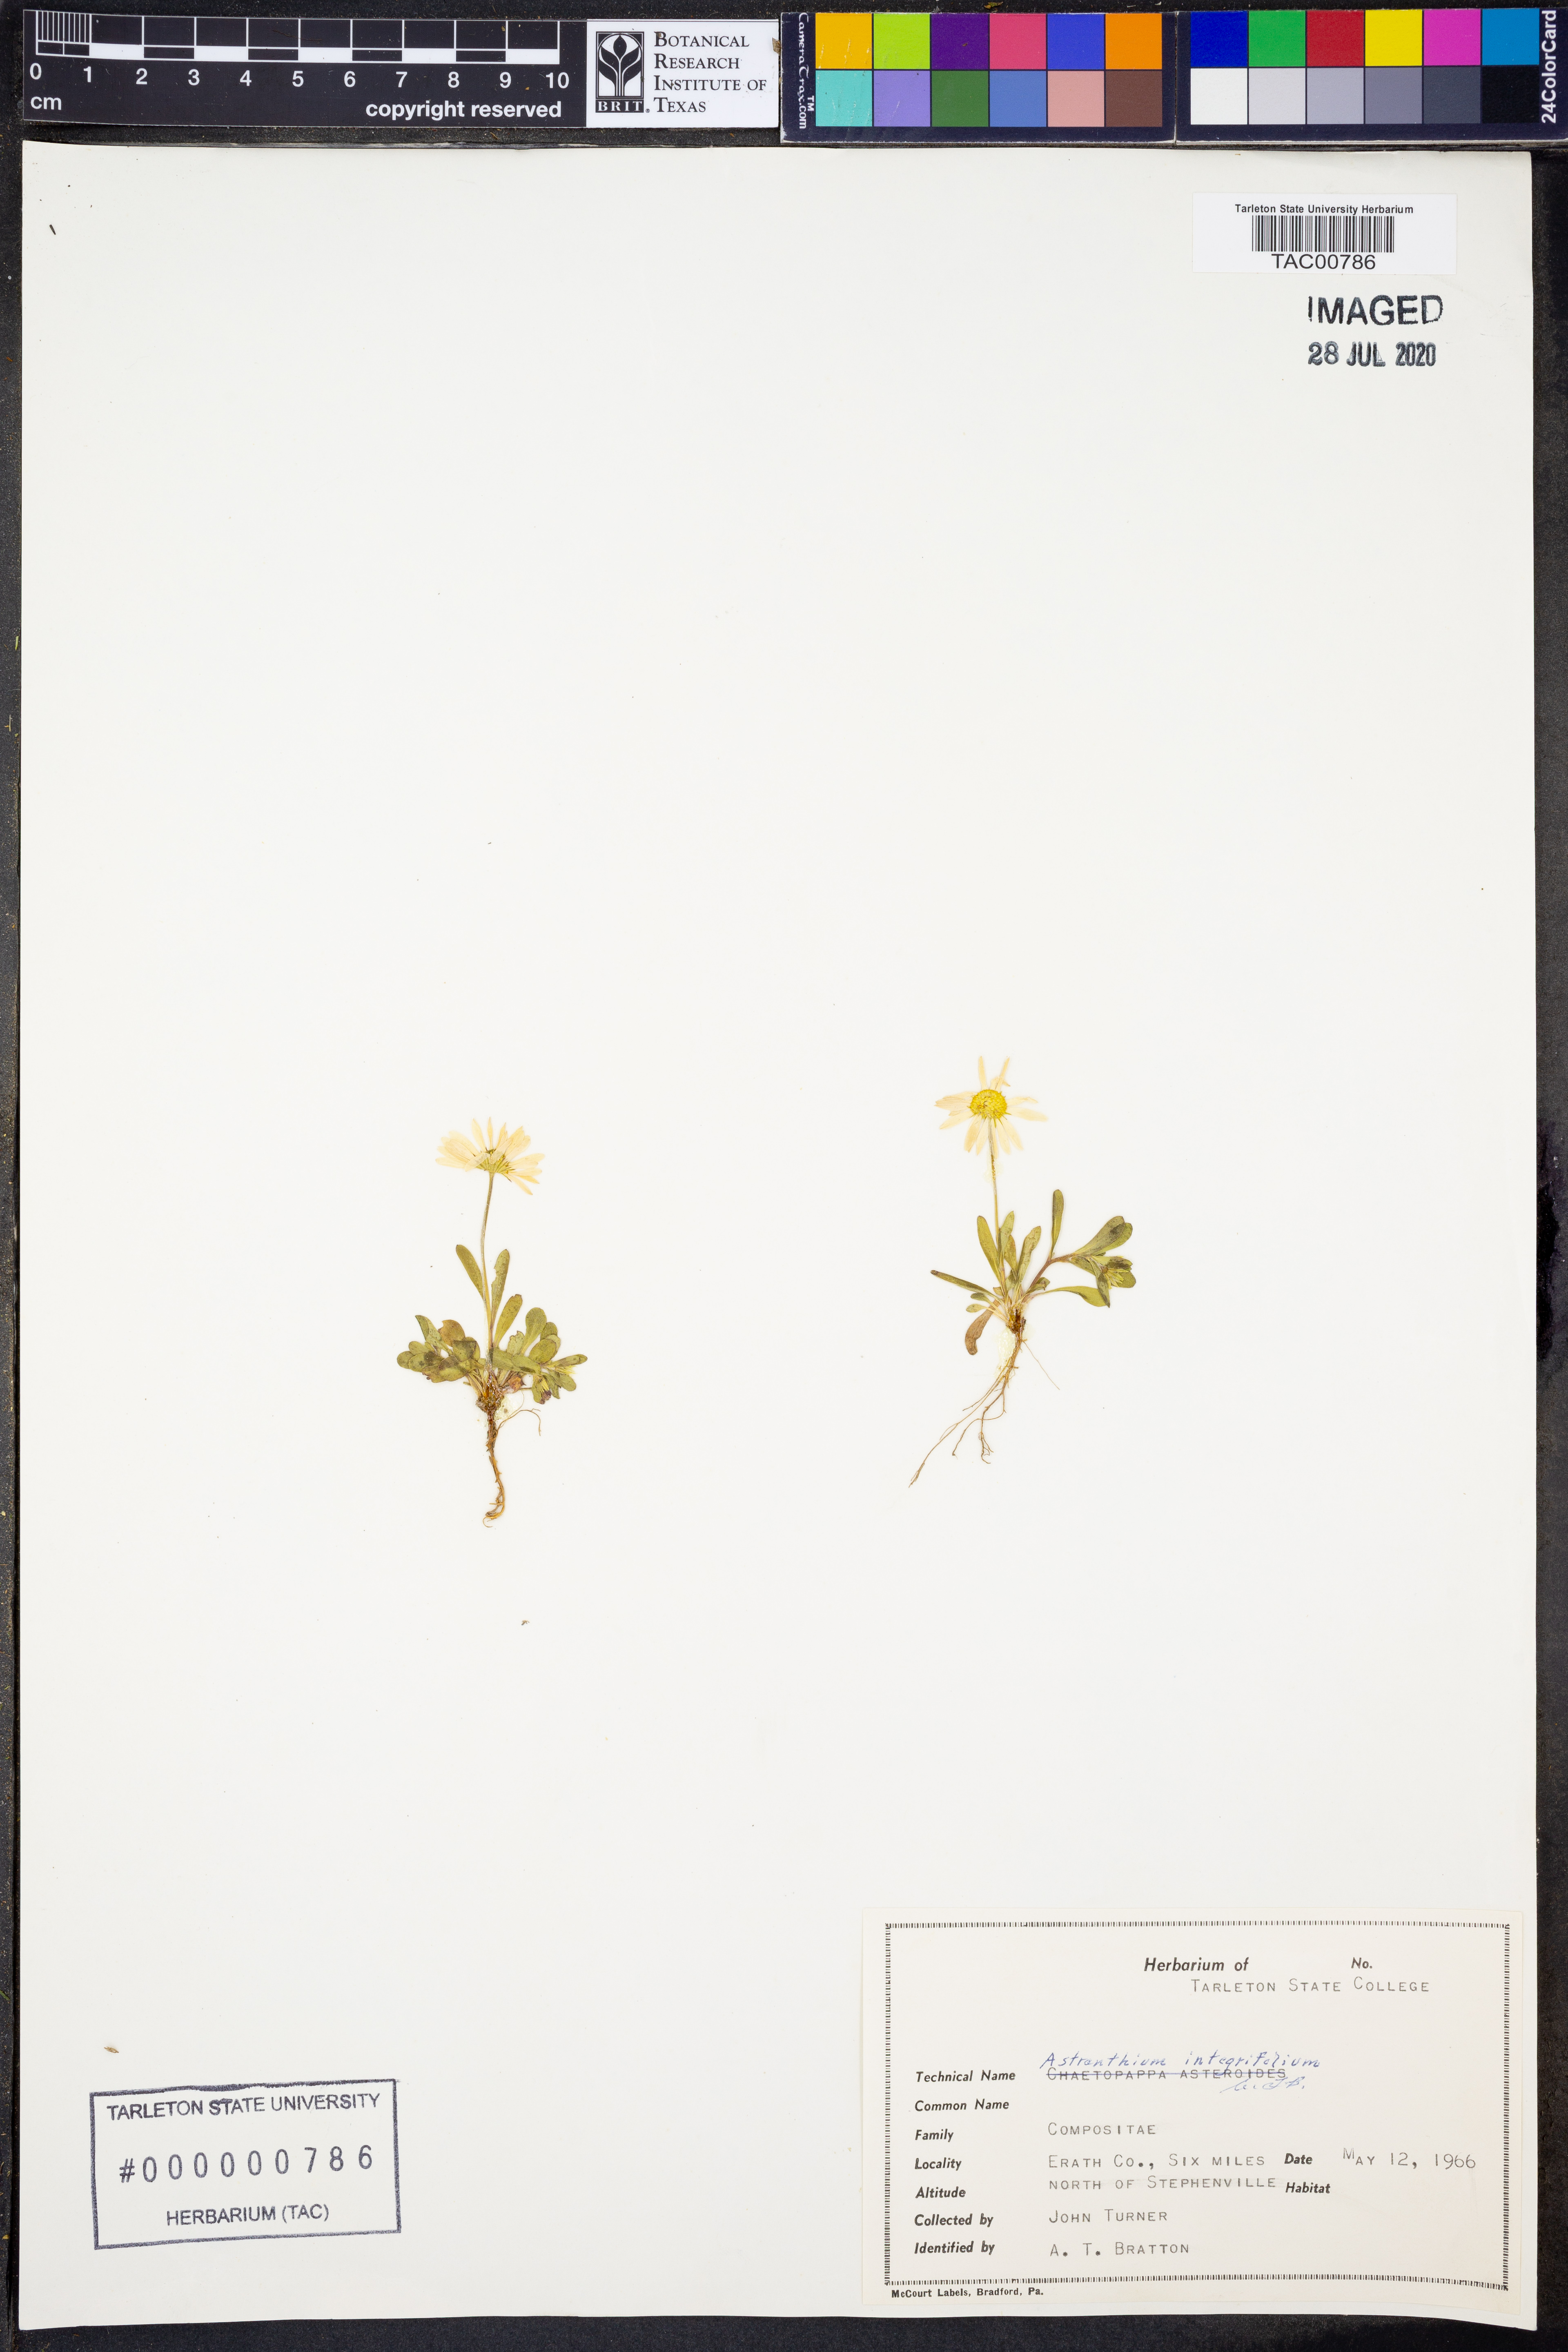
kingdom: Plantae
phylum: Tracheophyta
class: Magnoliopsida
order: Asterales
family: Asteraceae
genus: Astranthium
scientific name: Astranthium integrifolium
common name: Western daisy
